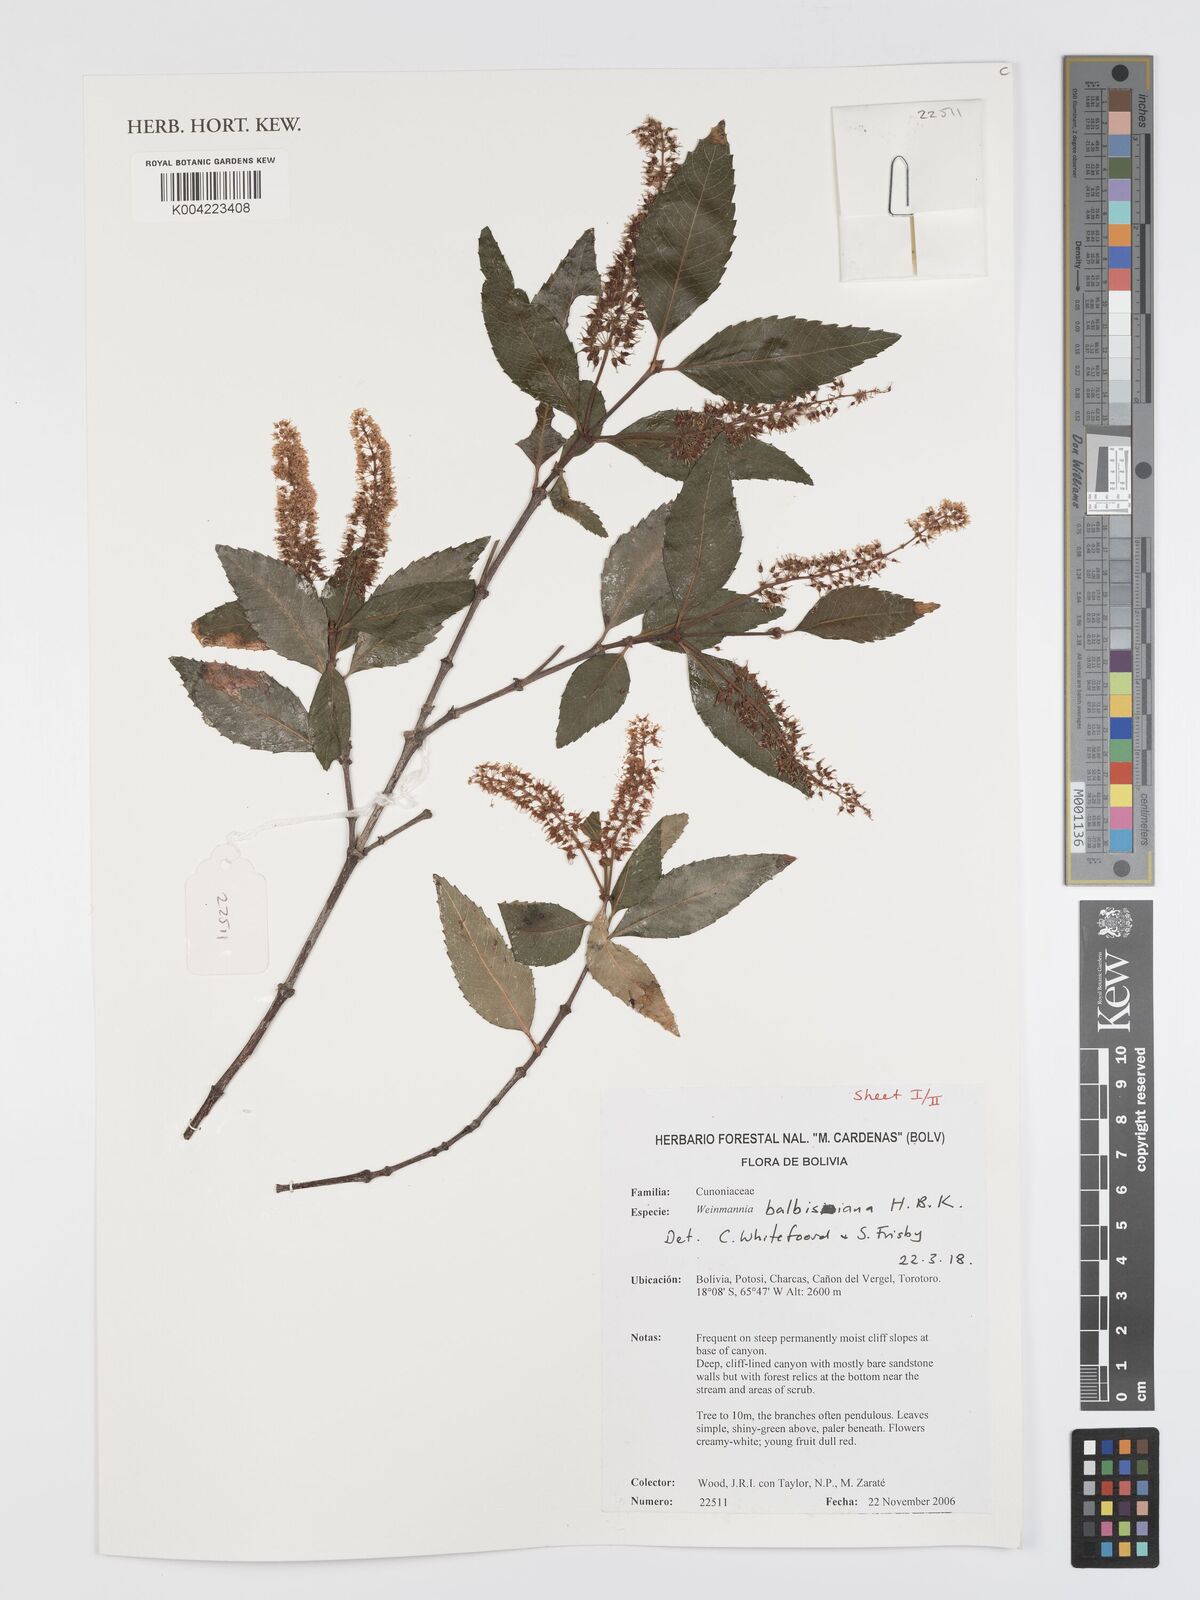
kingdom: Plantae
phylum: Tracheophyta
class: Magnoliopsida
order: Oxalidales
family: Cunoniaceae
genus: Weinmannia
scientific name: Weinmannia balbisana
